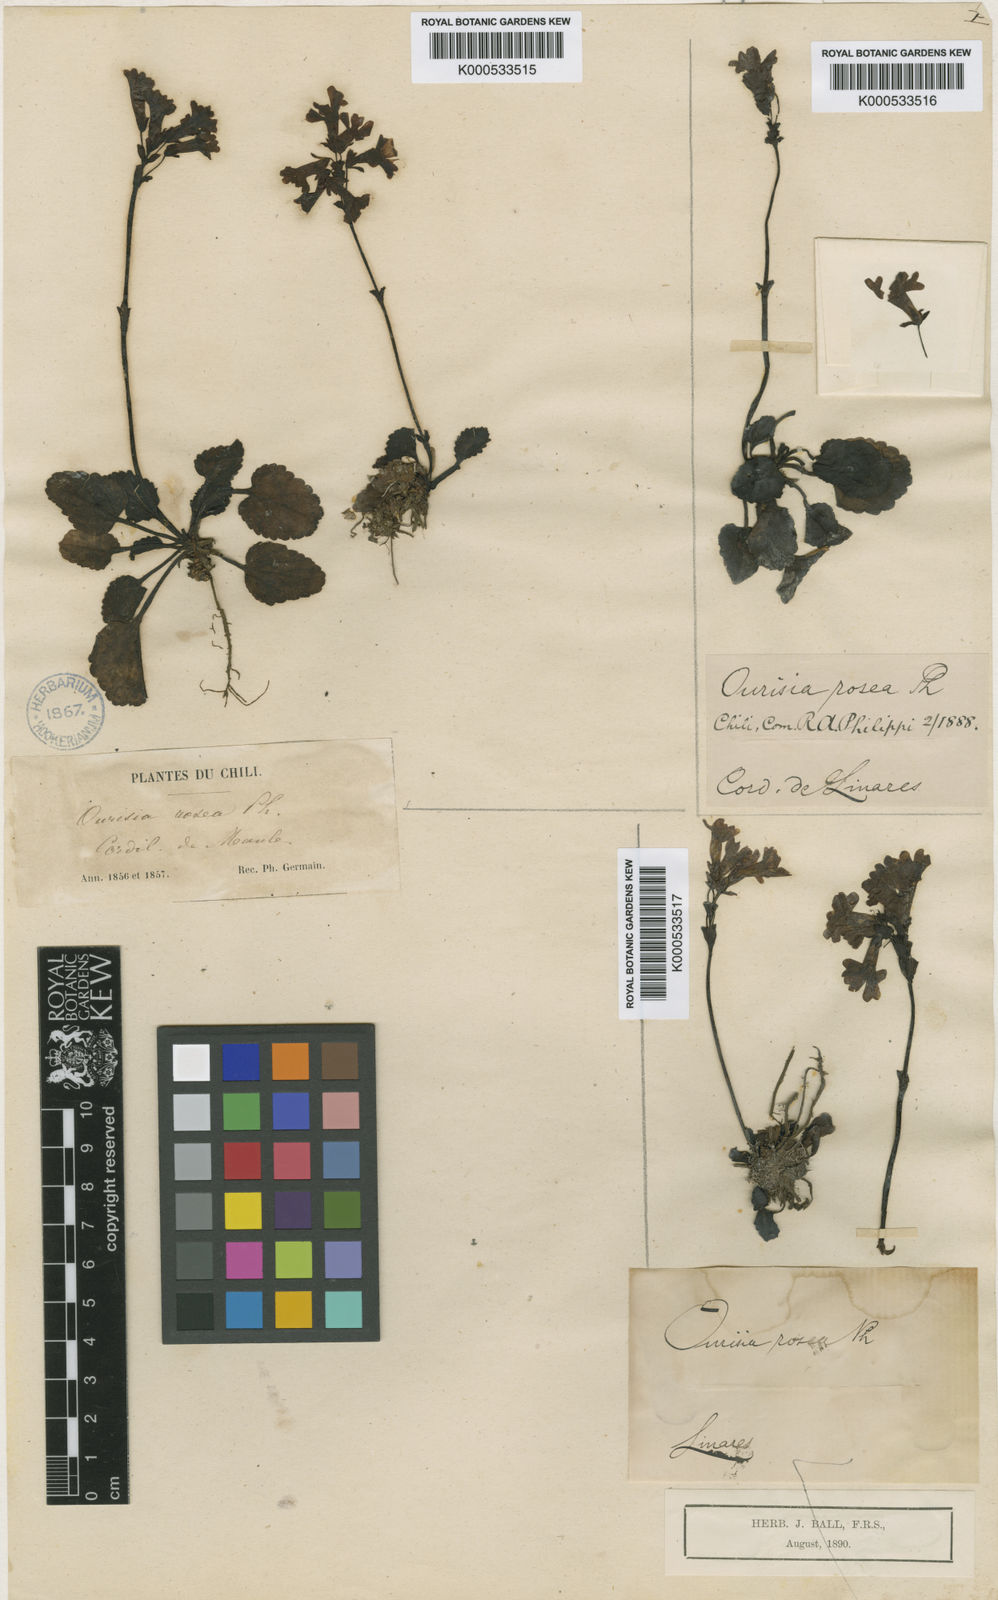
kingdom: Plantae
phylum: Tracheophyta
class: Magnoliopsida
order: Lamiales
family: Plantaginaceae
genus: Ourisia
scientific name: Ourisia alpina
